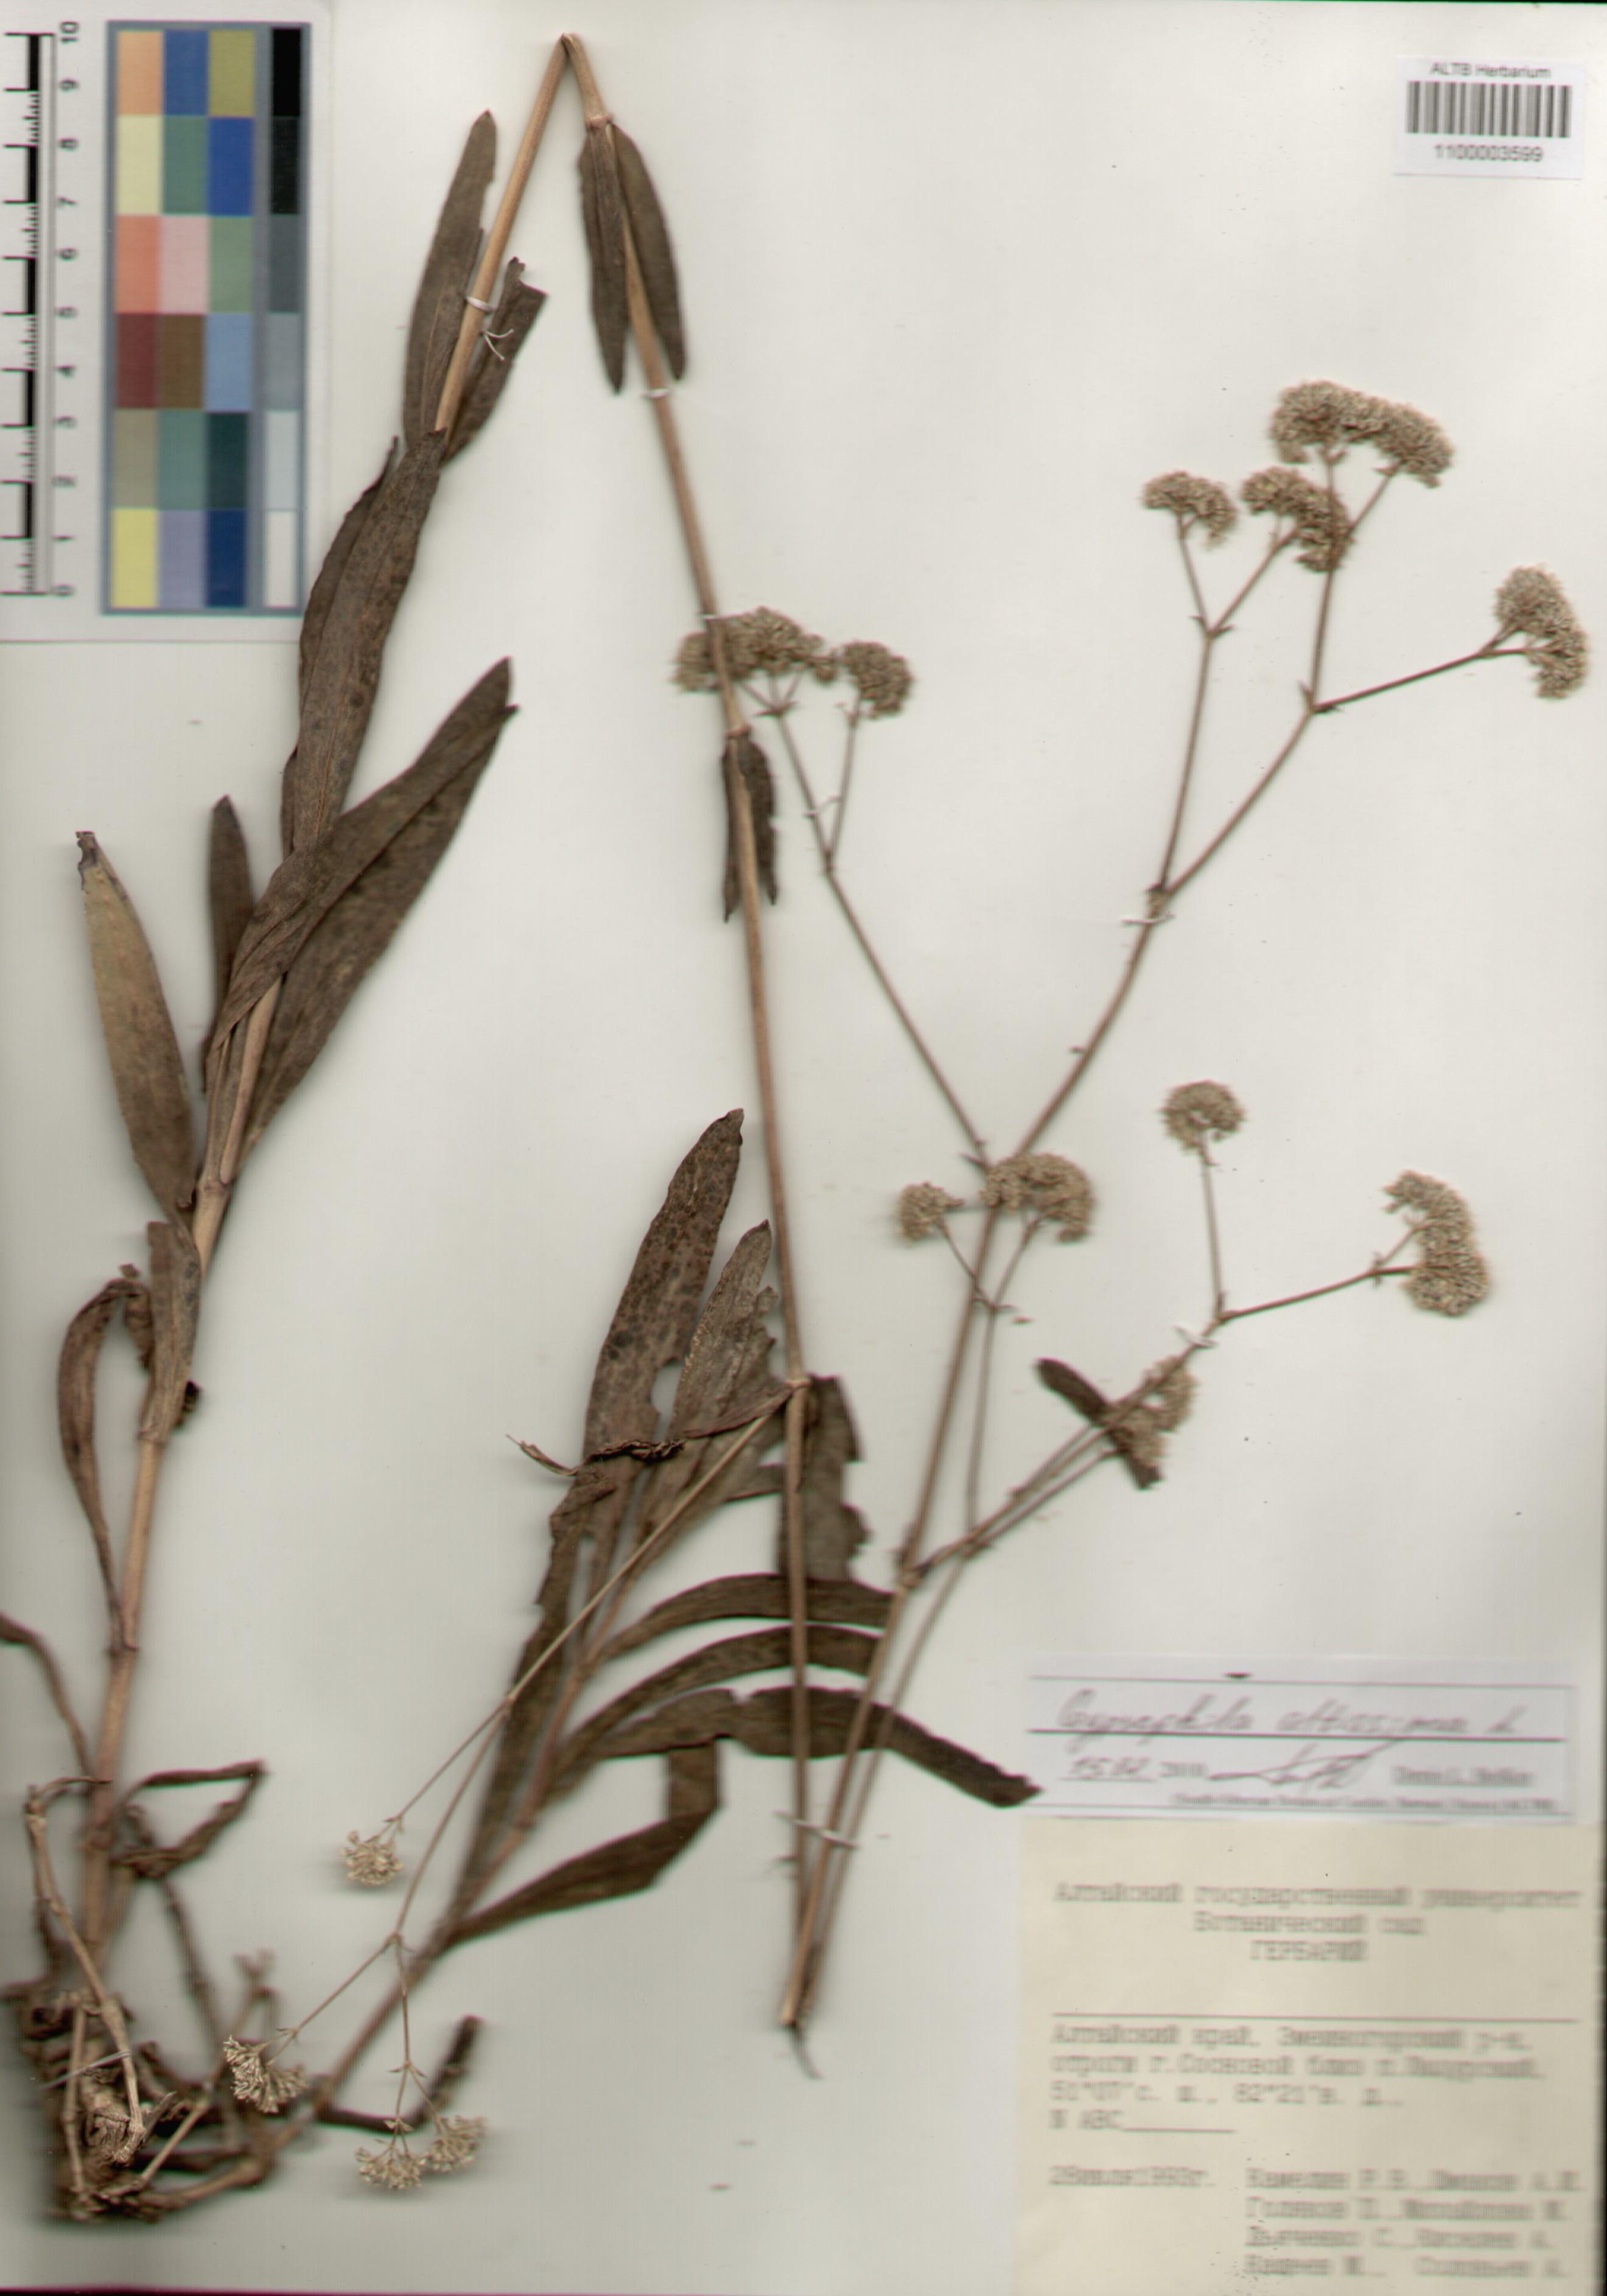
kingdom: Plantae
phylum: Tracheophyta
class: Magnoliopsida
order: Caryophyllales
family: Caryophyllaceae
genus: Gypsophila
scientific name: Gypsophila altissima
